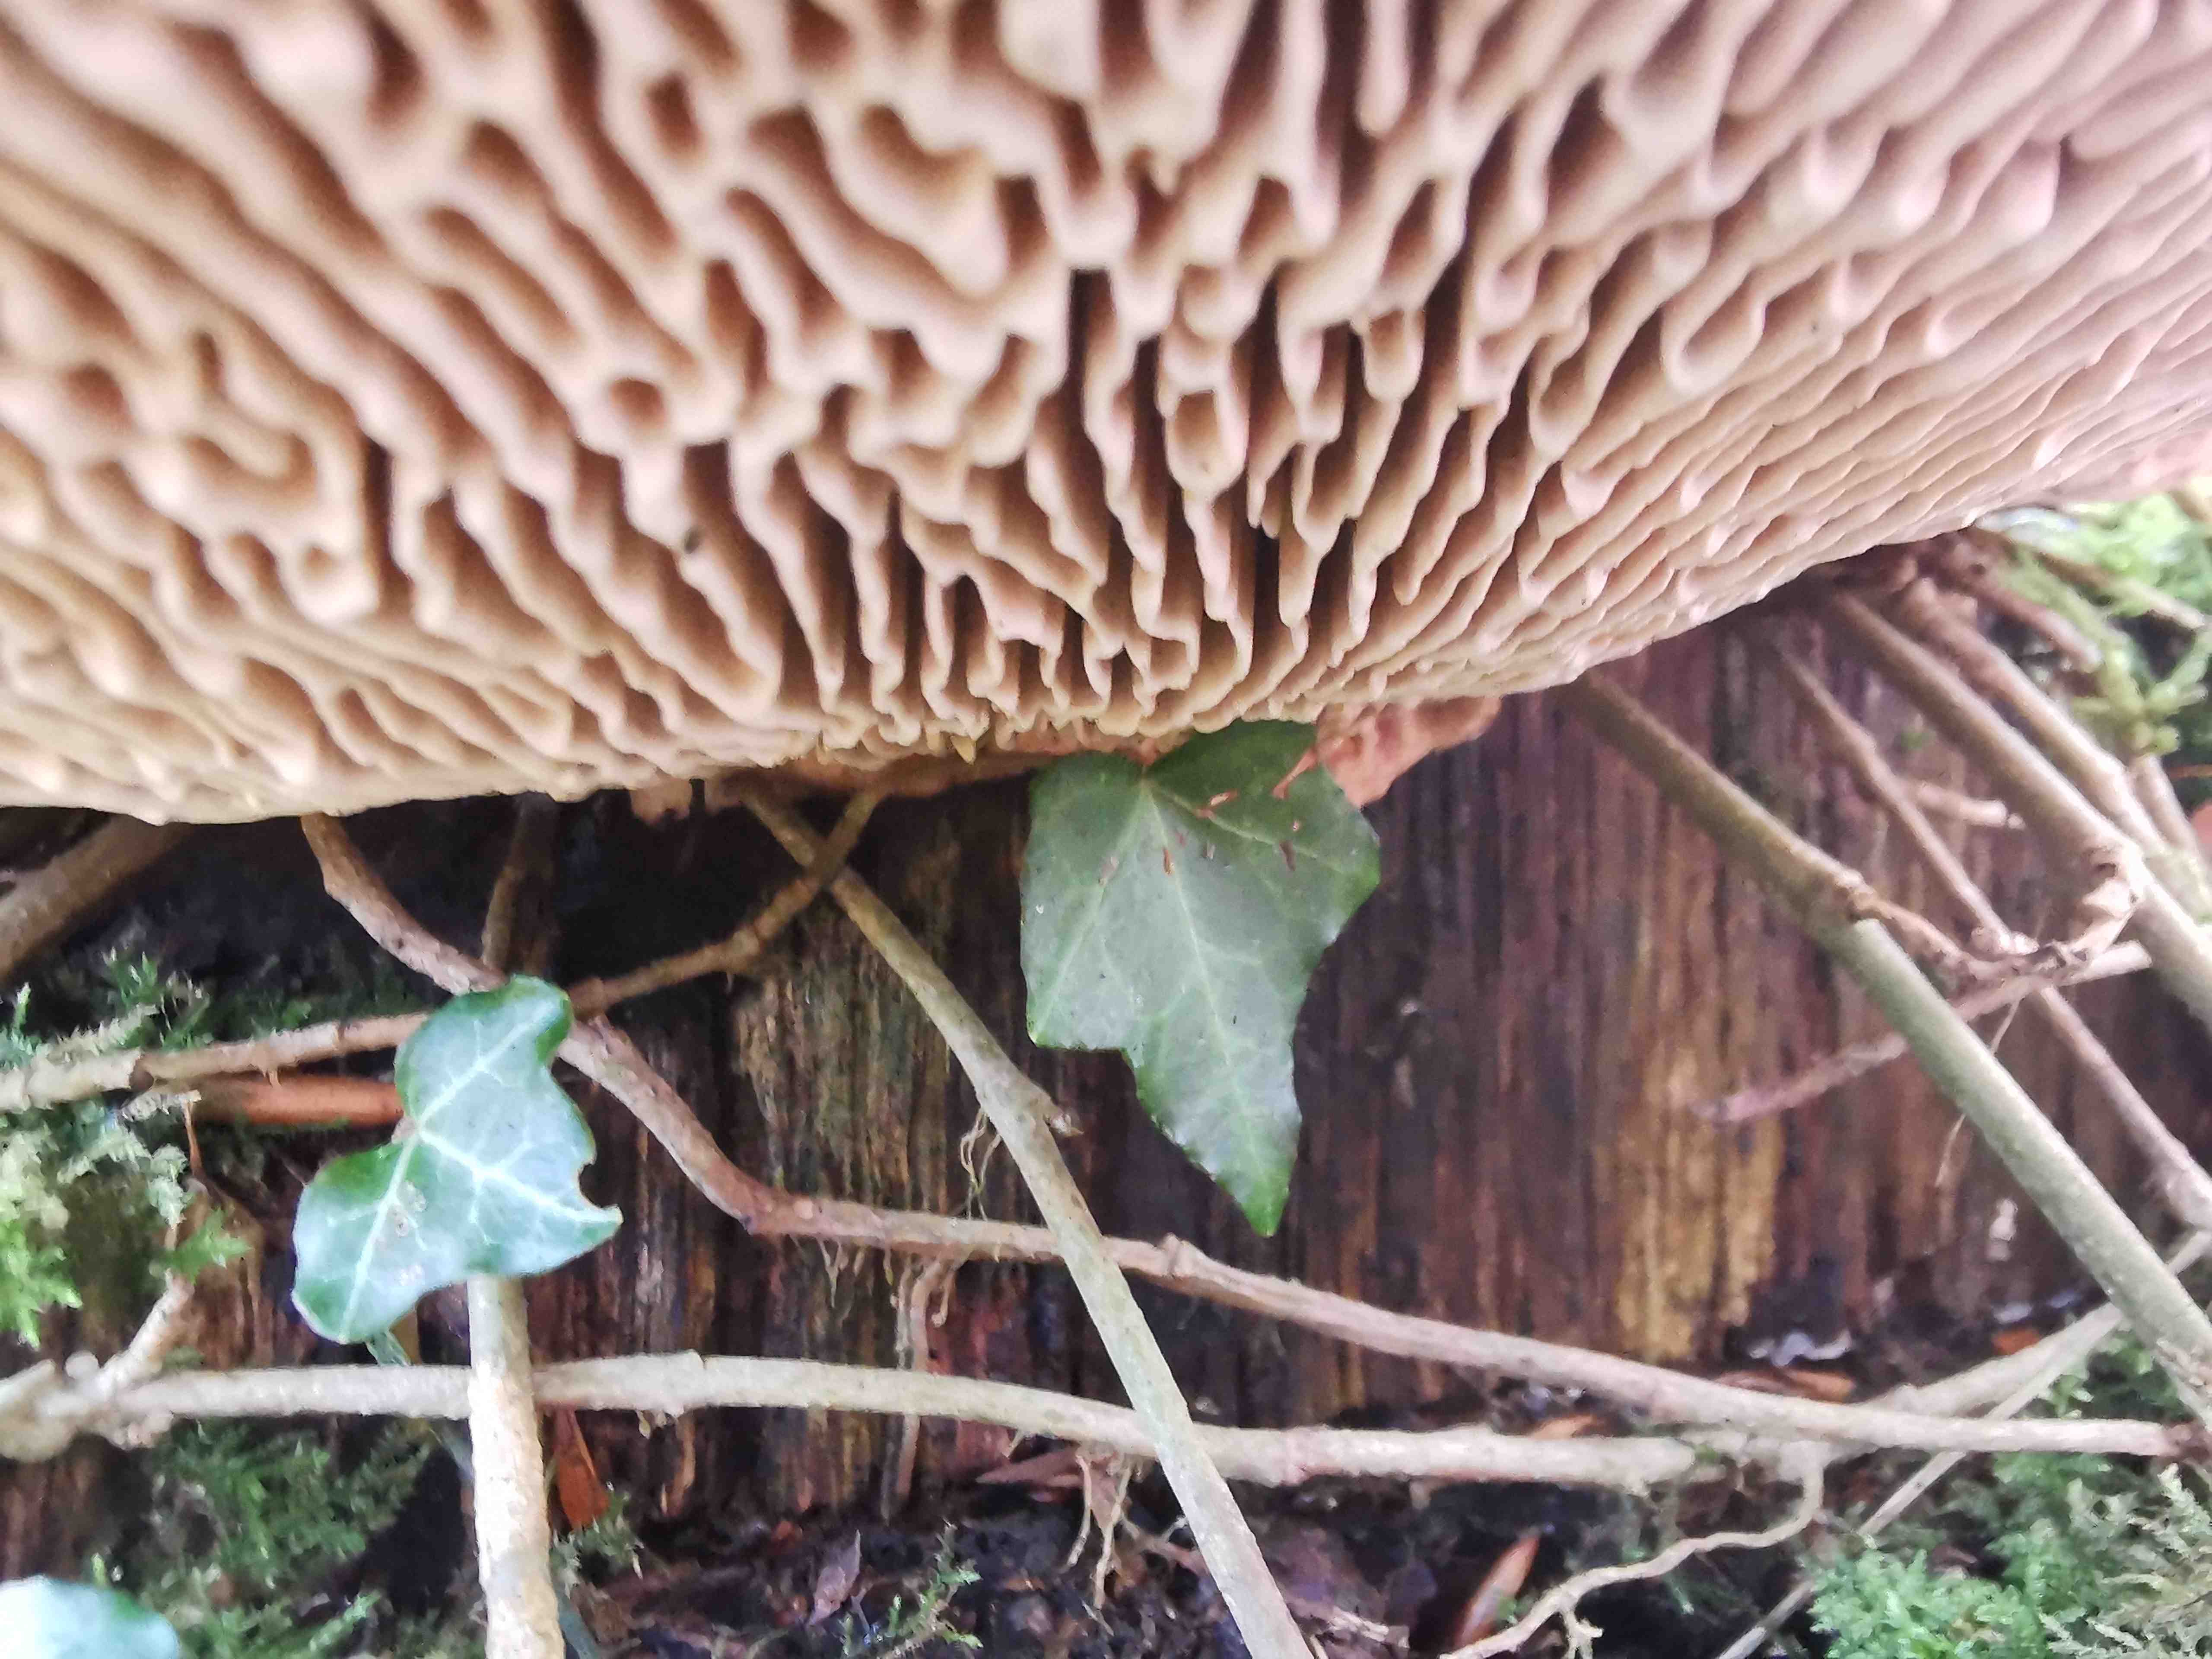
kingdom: Fungi
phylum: Basidiomycota
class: Agaricomycetes
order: Polyporales
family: Fomitopsidaceae
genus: Daedalea
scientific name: Daedalea quercina
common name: ege-labyrintsvamp
